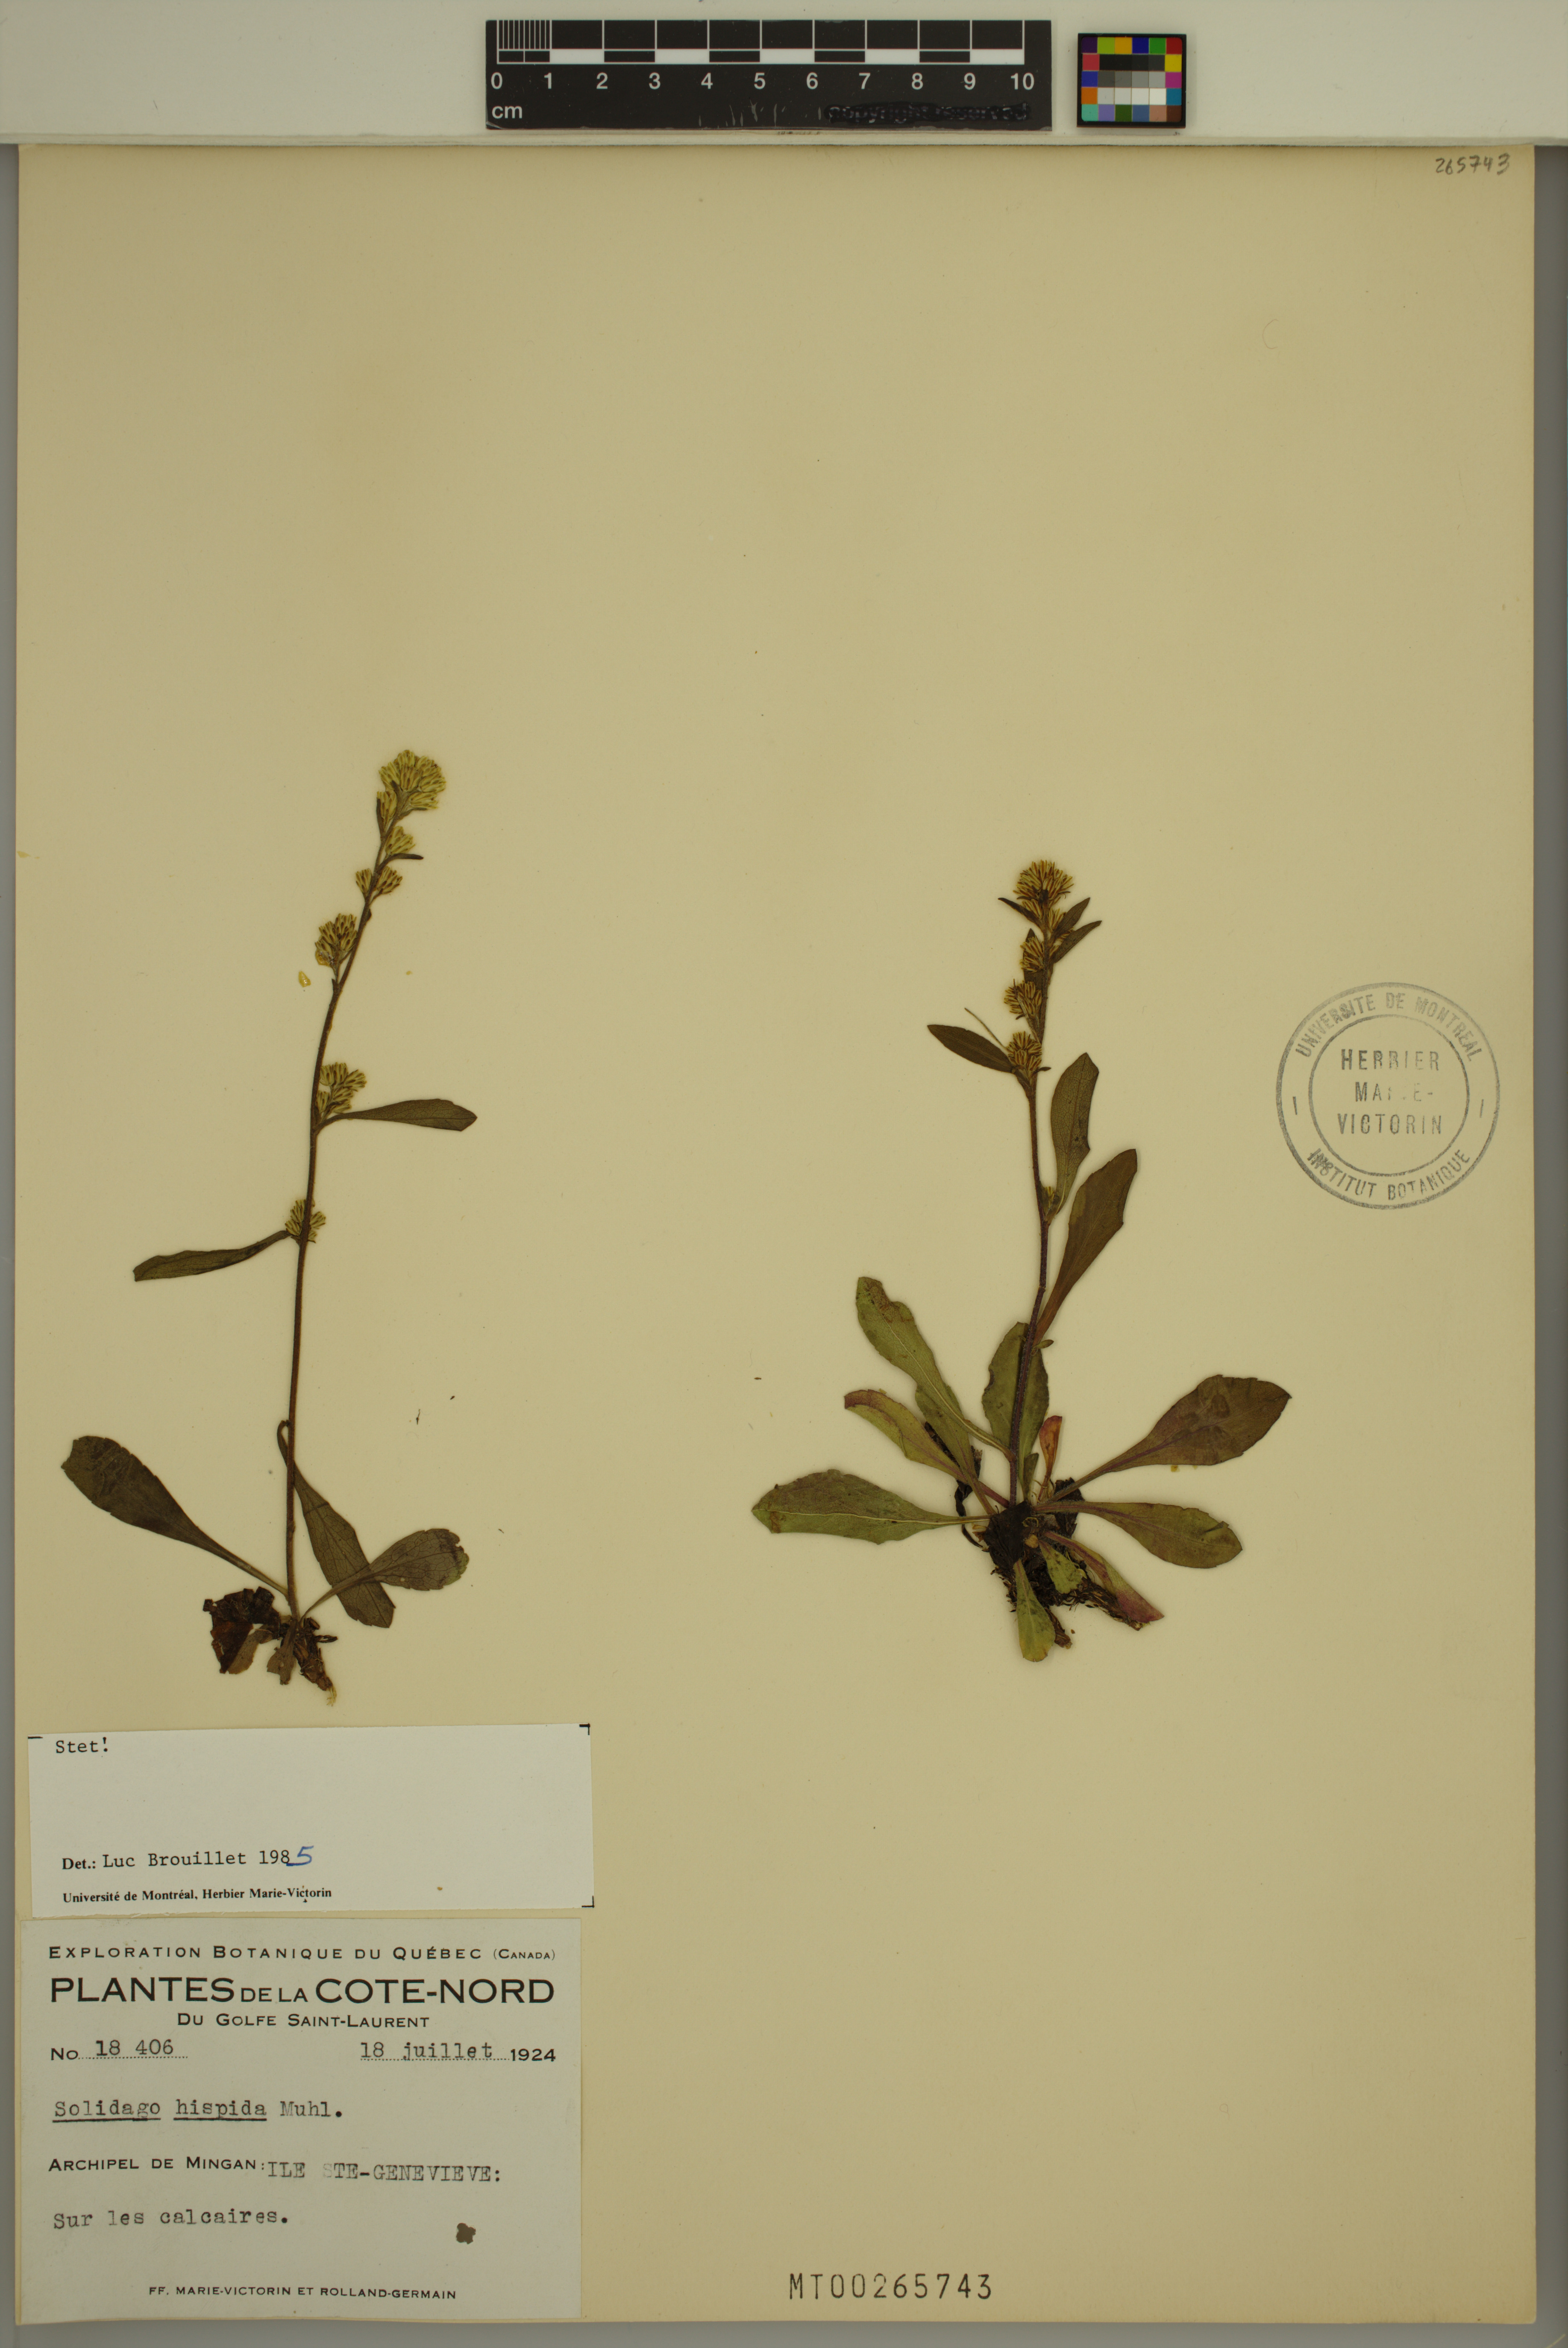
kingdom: Plantae
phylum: Tracheophyta
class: Magnoliopsida
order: Asterales
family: Asteraceae
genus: Solidago
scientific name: Solidago hispida
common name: Hairy goldenrod
